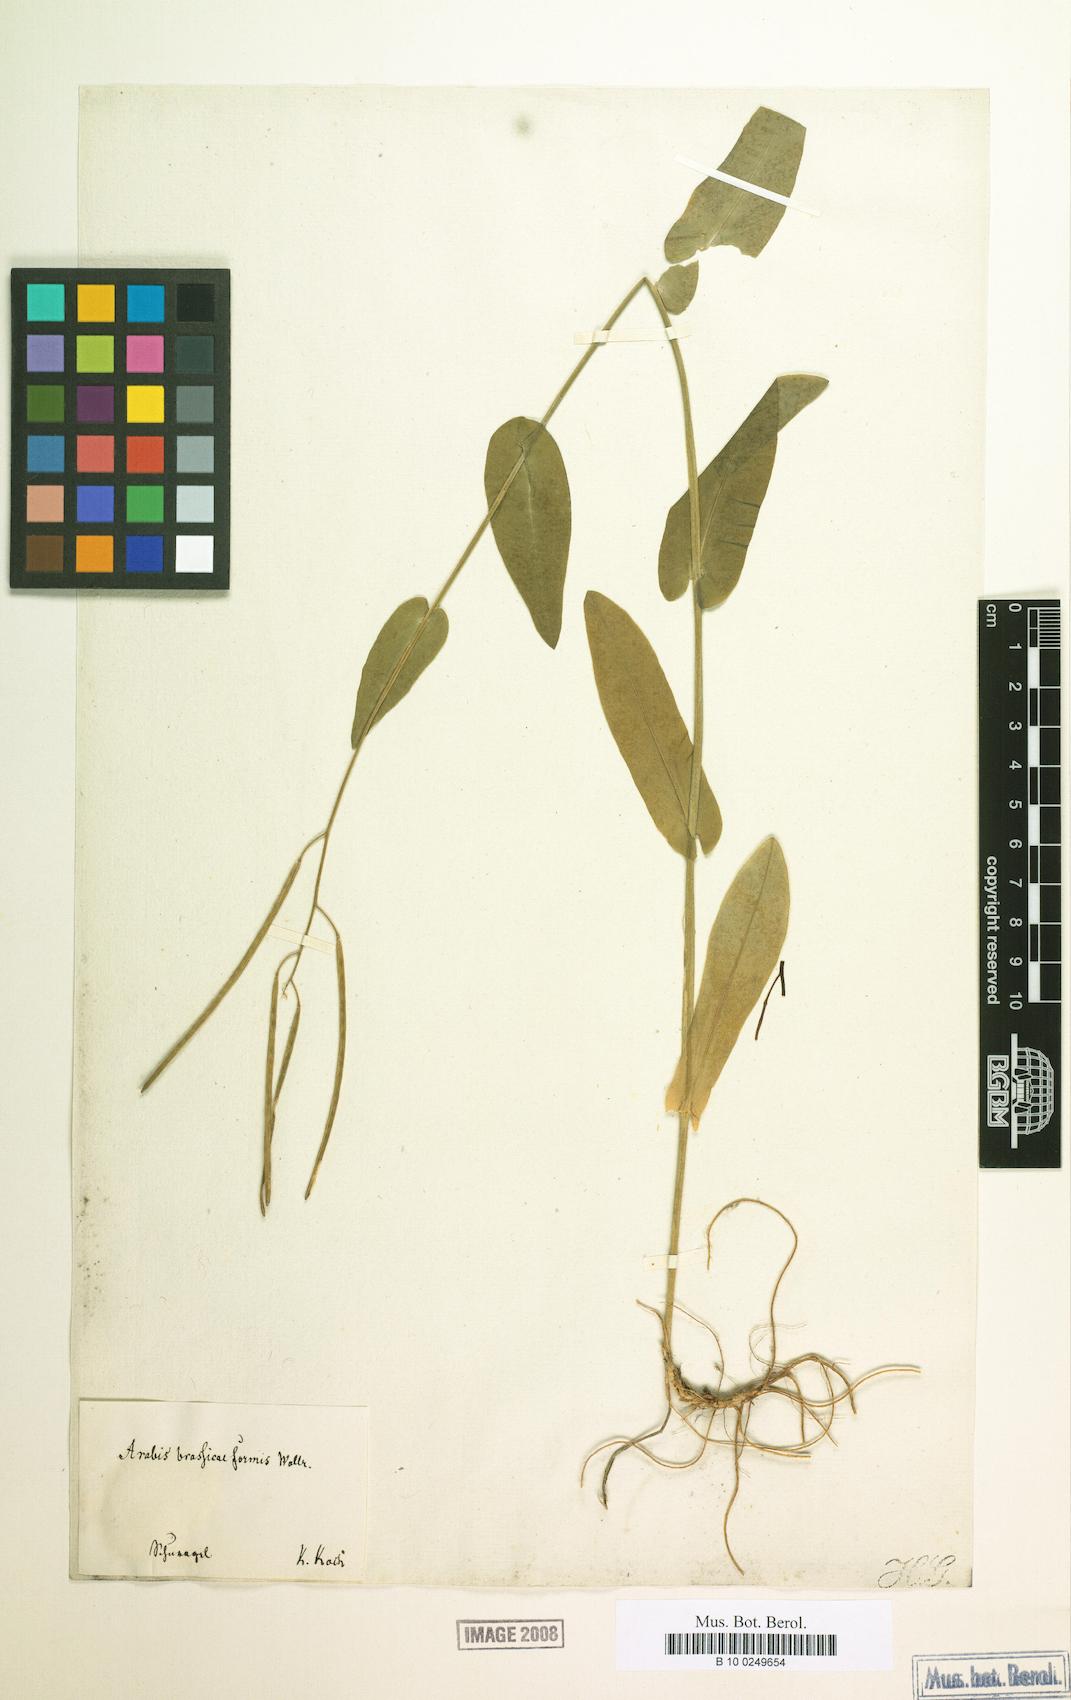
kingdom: Plantae
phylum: Tracheophyta
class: Magnoliopsida
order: Brassicales
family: Brassicaceae
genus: Fourraea
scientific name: Fourraea alpina
